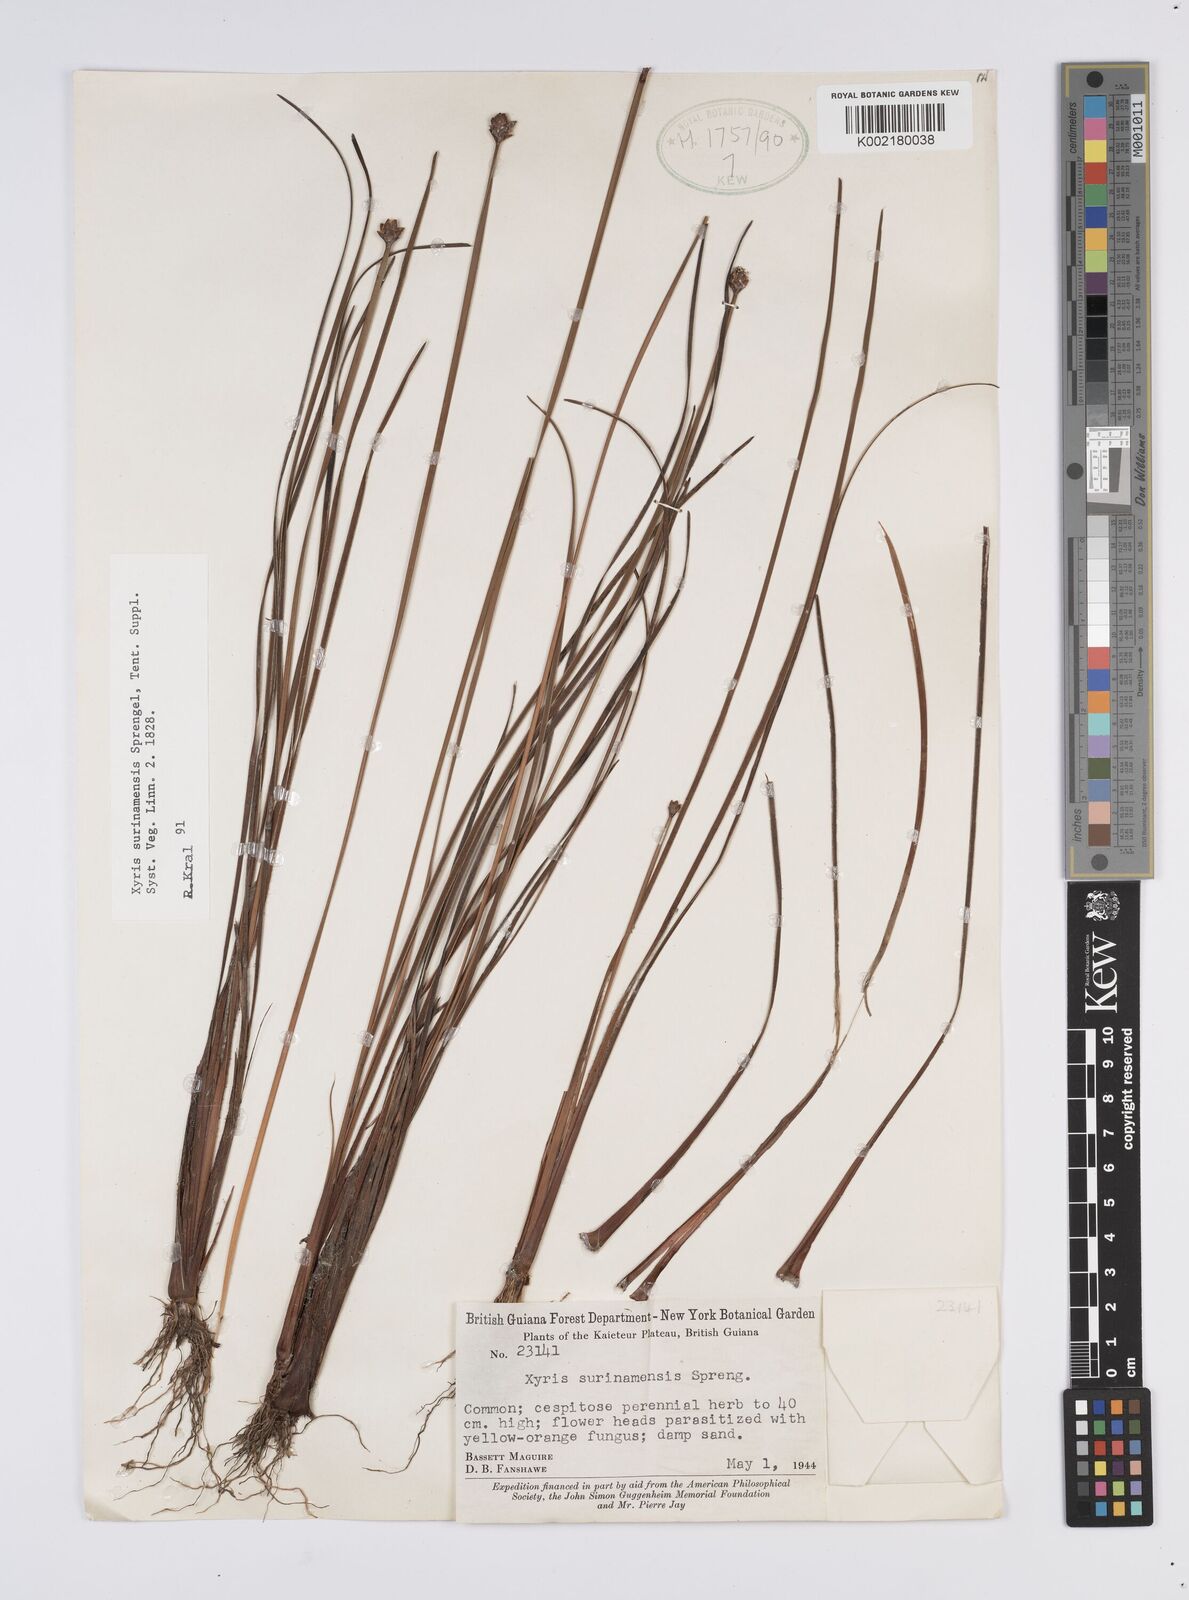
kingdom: Plantae
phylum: Tracheophyta
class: Liliopsida
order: Poales
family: Xyridaceae
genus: Xyris
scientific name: Xyris surinamensis
